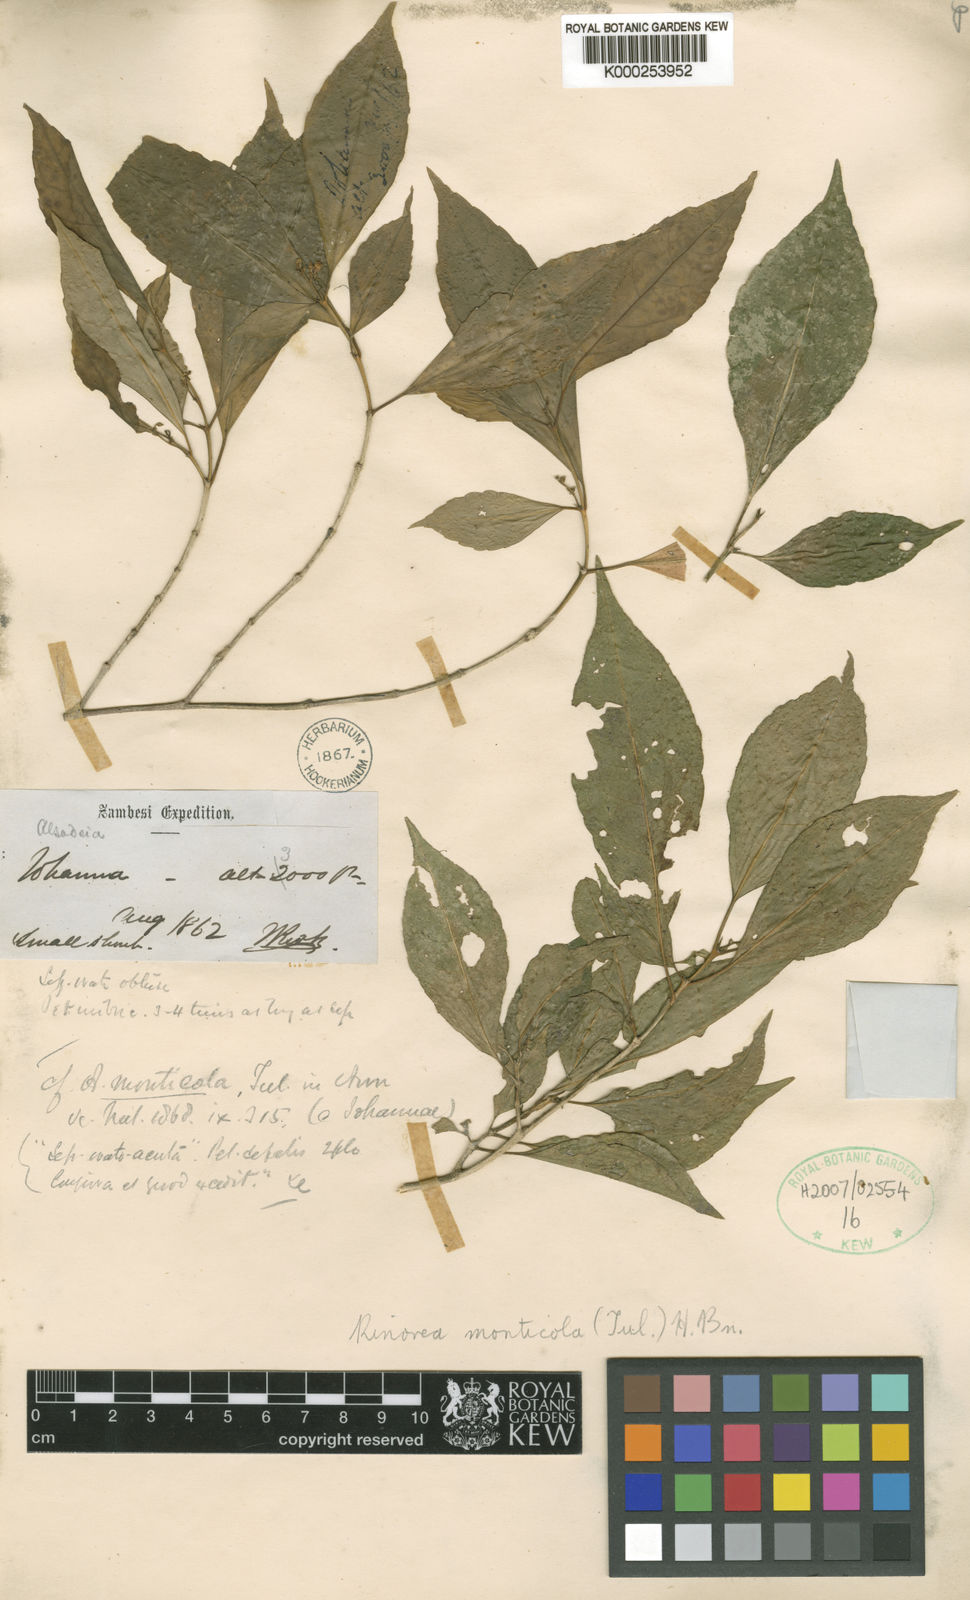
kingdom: Plantae
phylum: Tracheophyta
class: Magnoliopsida
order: Malpighiales
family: Violaceae
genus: Rinorea
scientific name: Rinorea monticola
